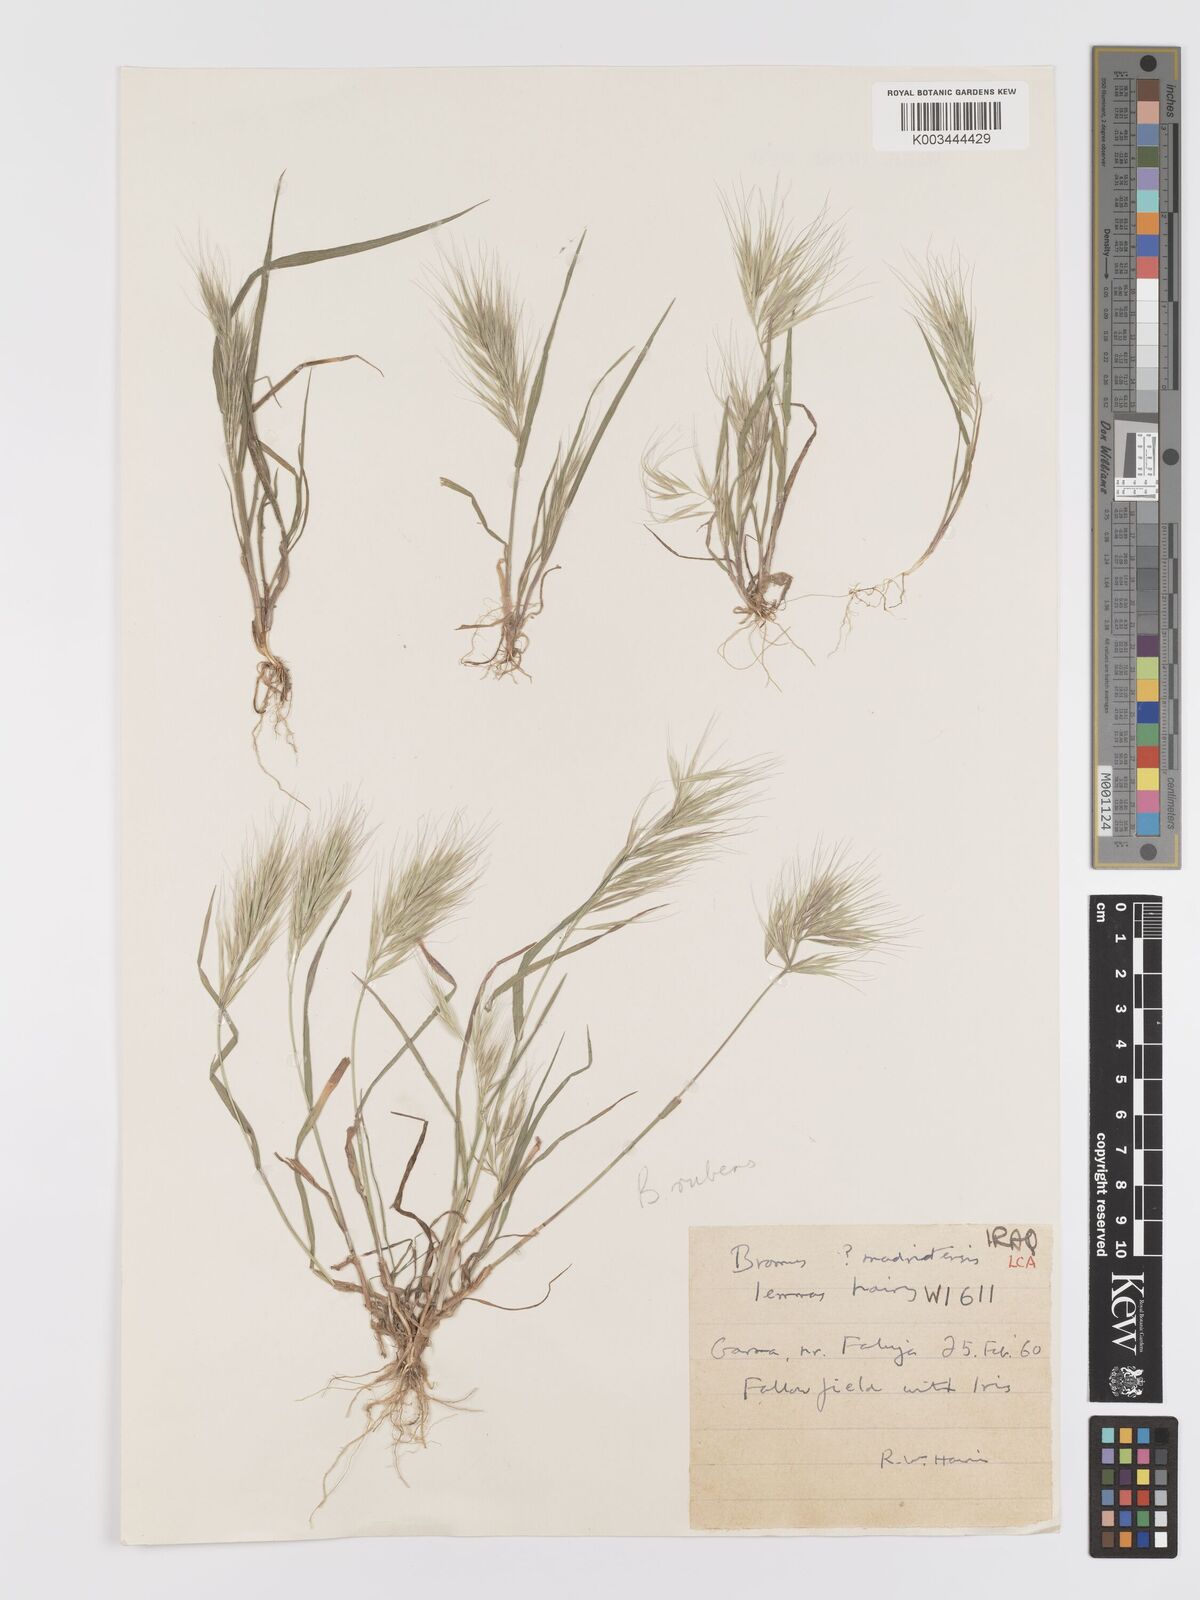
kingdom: Plantae
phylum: Tracheophyta
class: Liliopsida
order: Poales
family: Poaceae
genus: Bromus
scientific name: Bromus rubens
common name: Red brome
